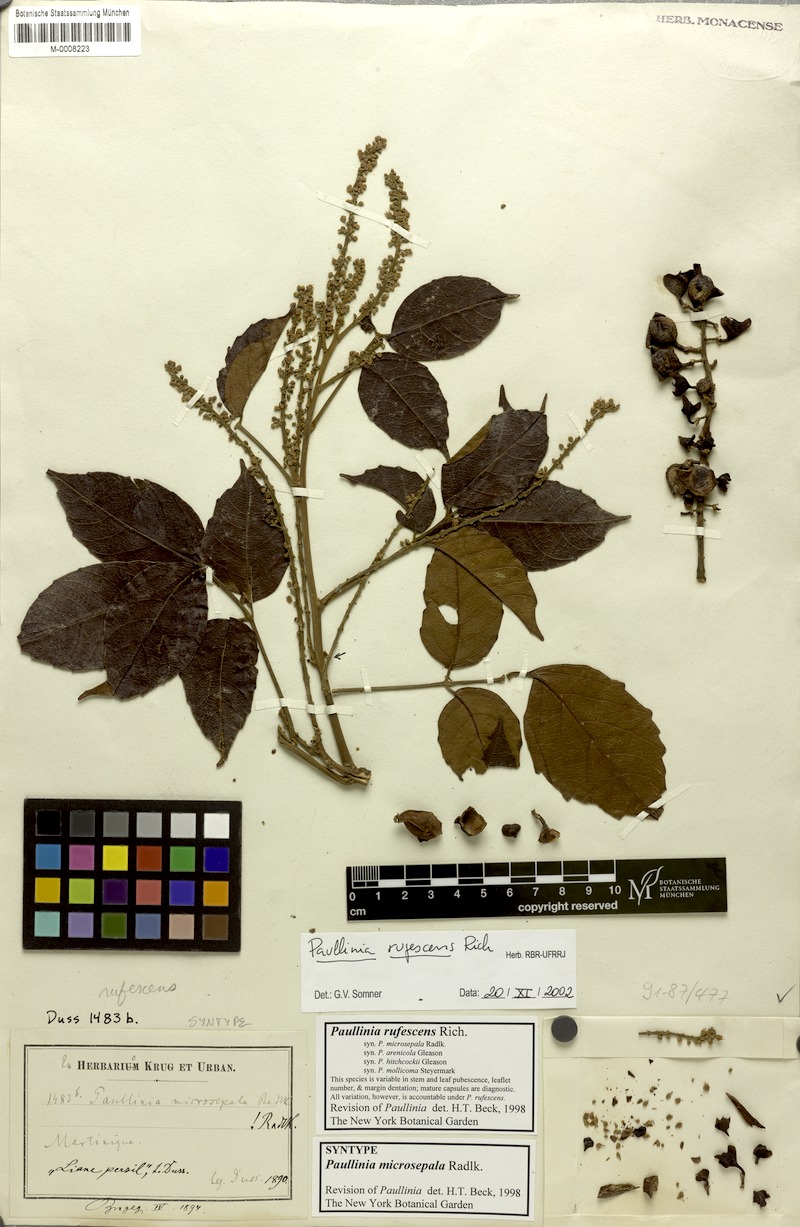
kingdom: Plantae
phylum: Tracheophyta
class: Magnoliopsida
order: Sapindales
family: Sapindaceae
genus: Paullinia
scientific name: Paullinia rufescens
